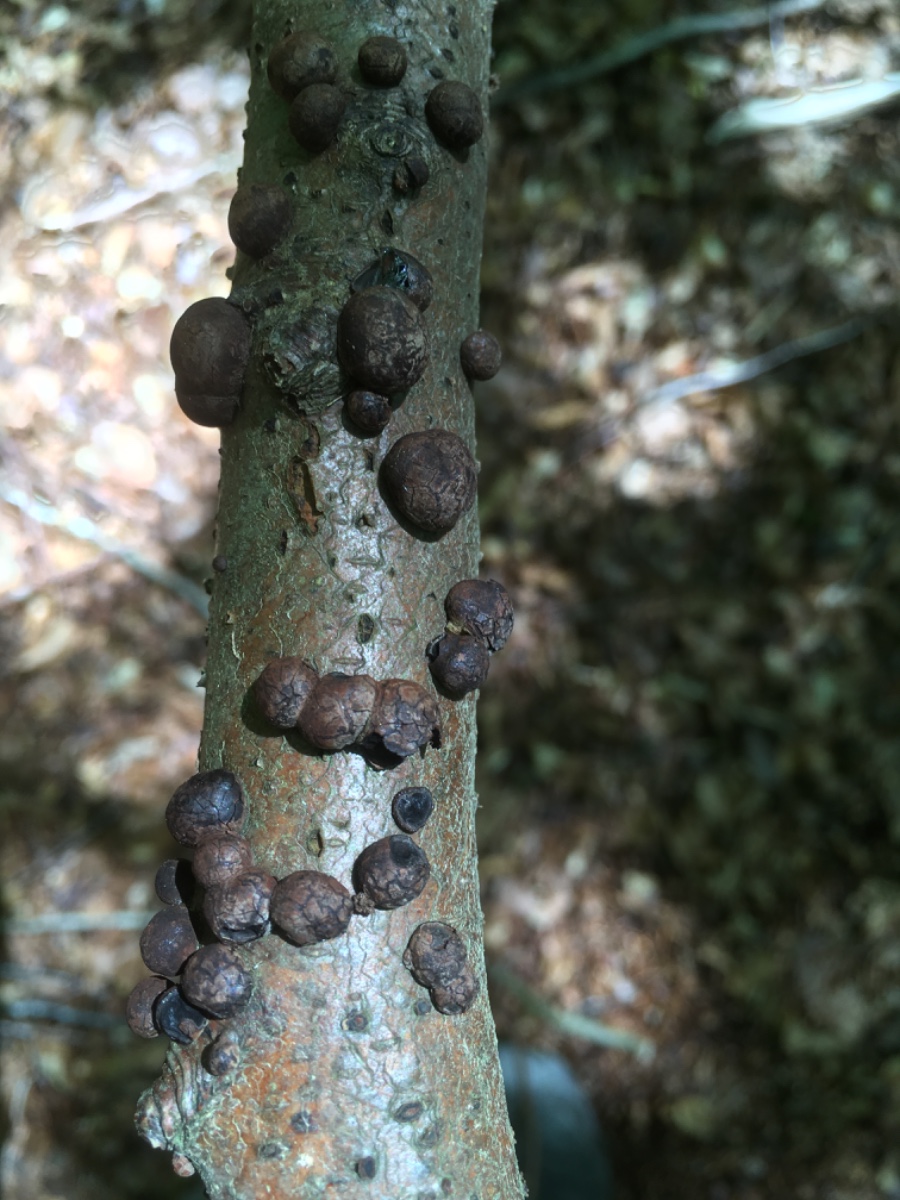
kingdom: Fungi
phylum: Ascomycota
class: Sordariomycetes
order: Xylariales
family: Hypoxylaceae
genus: Hypoxylon
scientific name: Hypoxylon fragiforme
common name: kuljordbær
